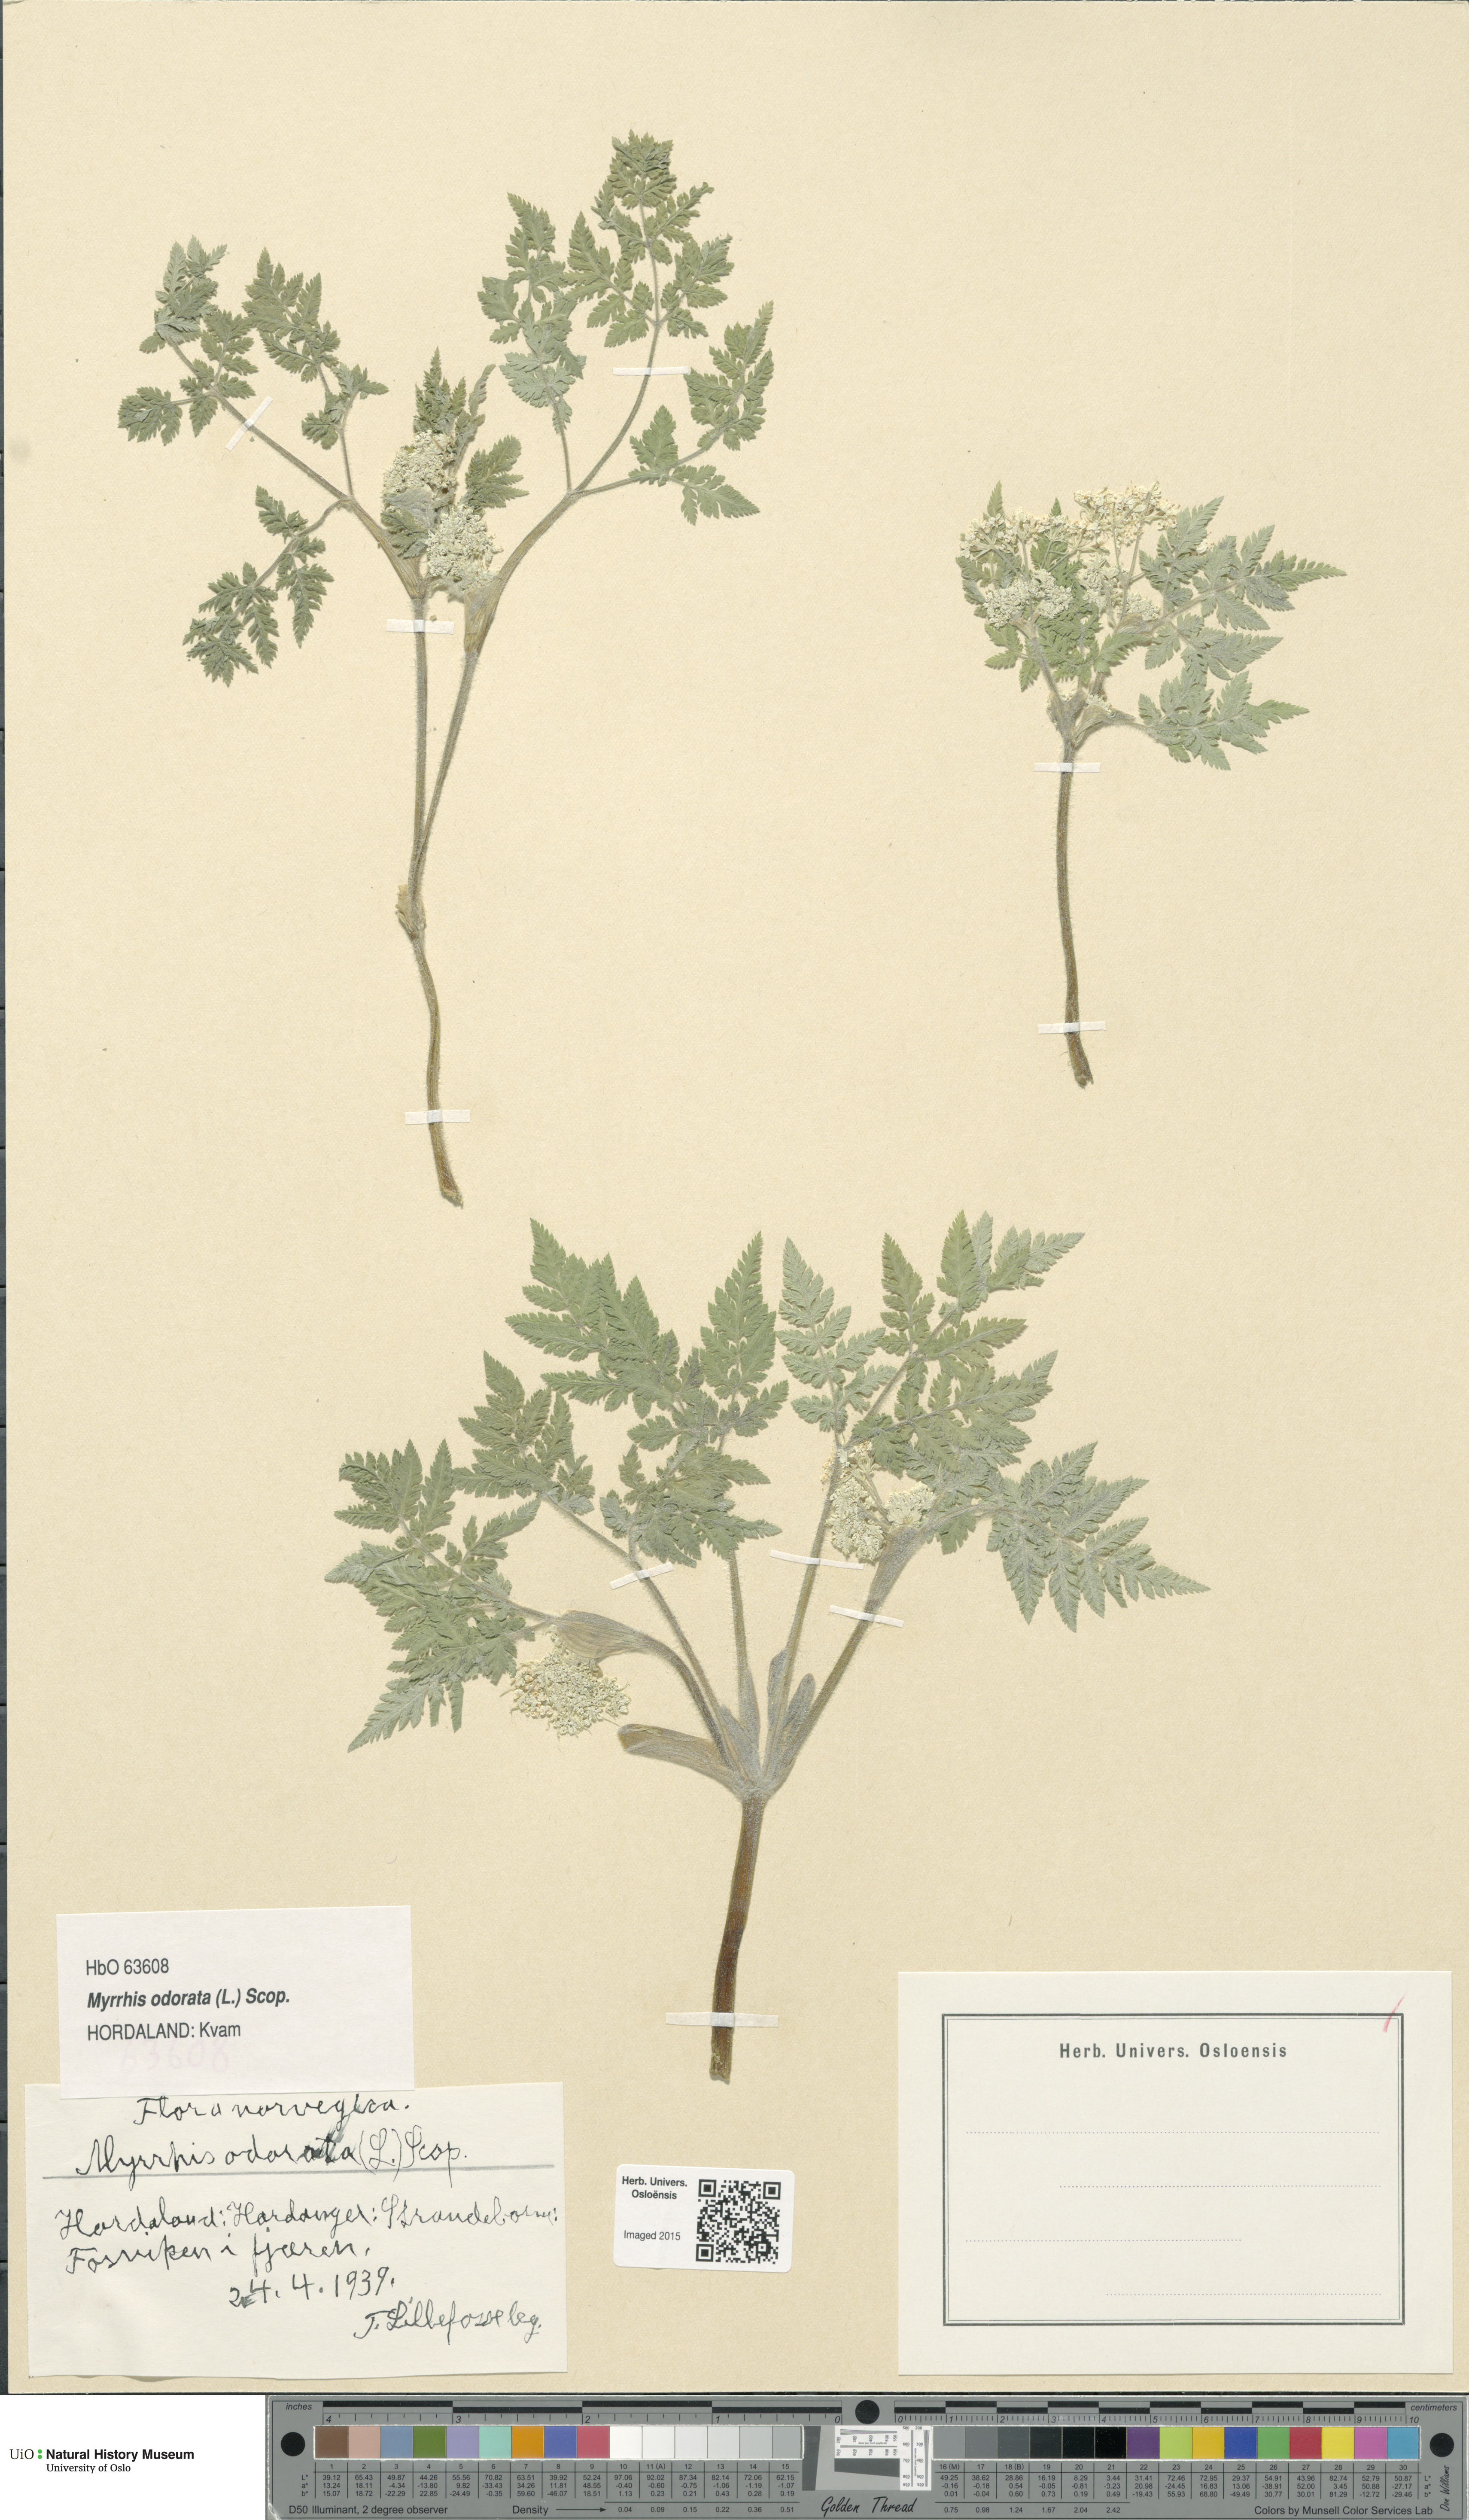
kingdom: Plantae
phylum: Tracheophyta
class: Magnoliopsida
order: Apiales
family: Apiaceae
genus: Myrrhis
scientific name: Myrrhis odorata
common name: Sweet cicely
